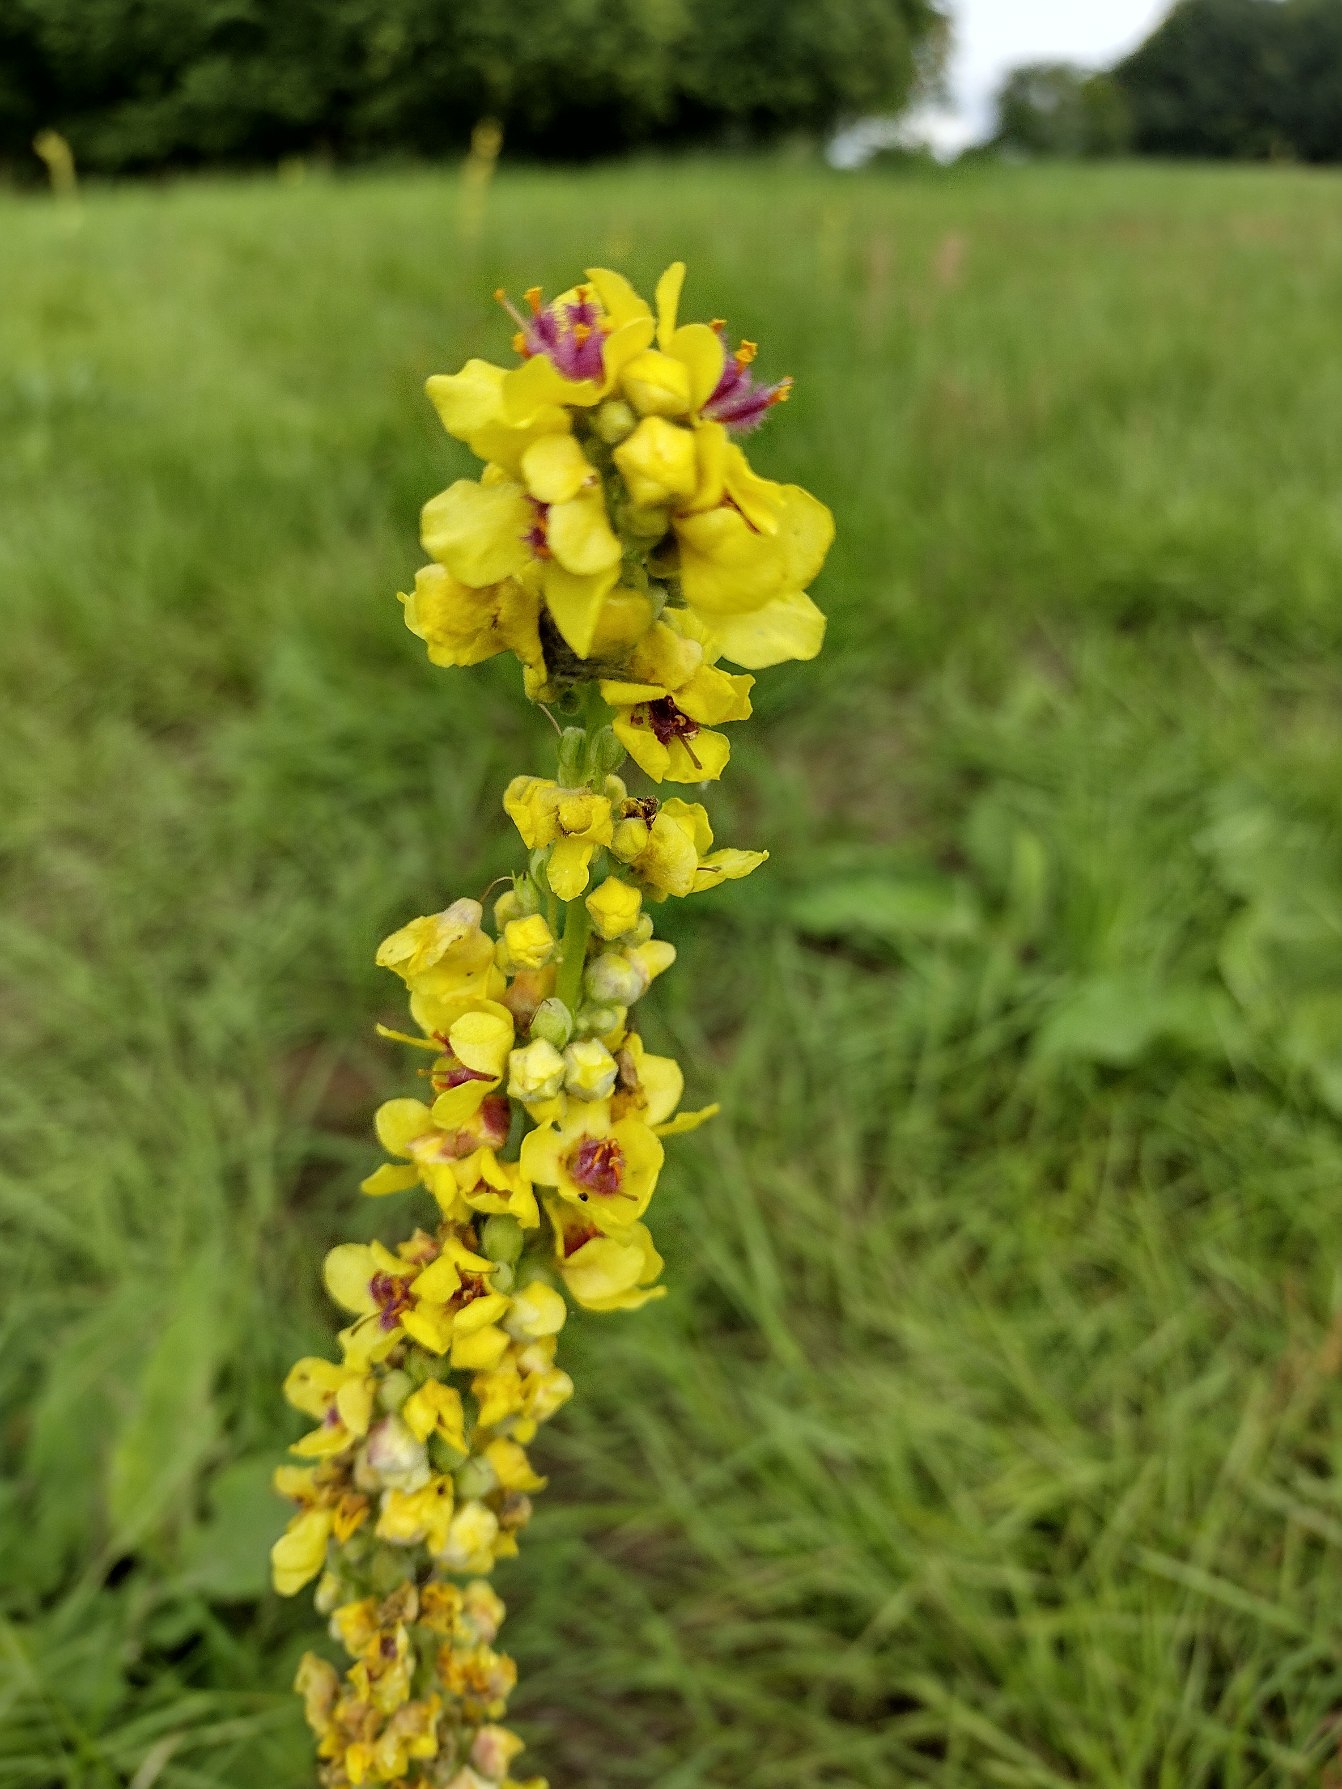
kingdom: Plantae
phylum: Tracheophyta
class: Magnoliopsida
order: Lamiales
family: Scrophulariaceae
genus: Verbascum
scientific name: Verbascum nigrum
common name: Mørk kongelys
